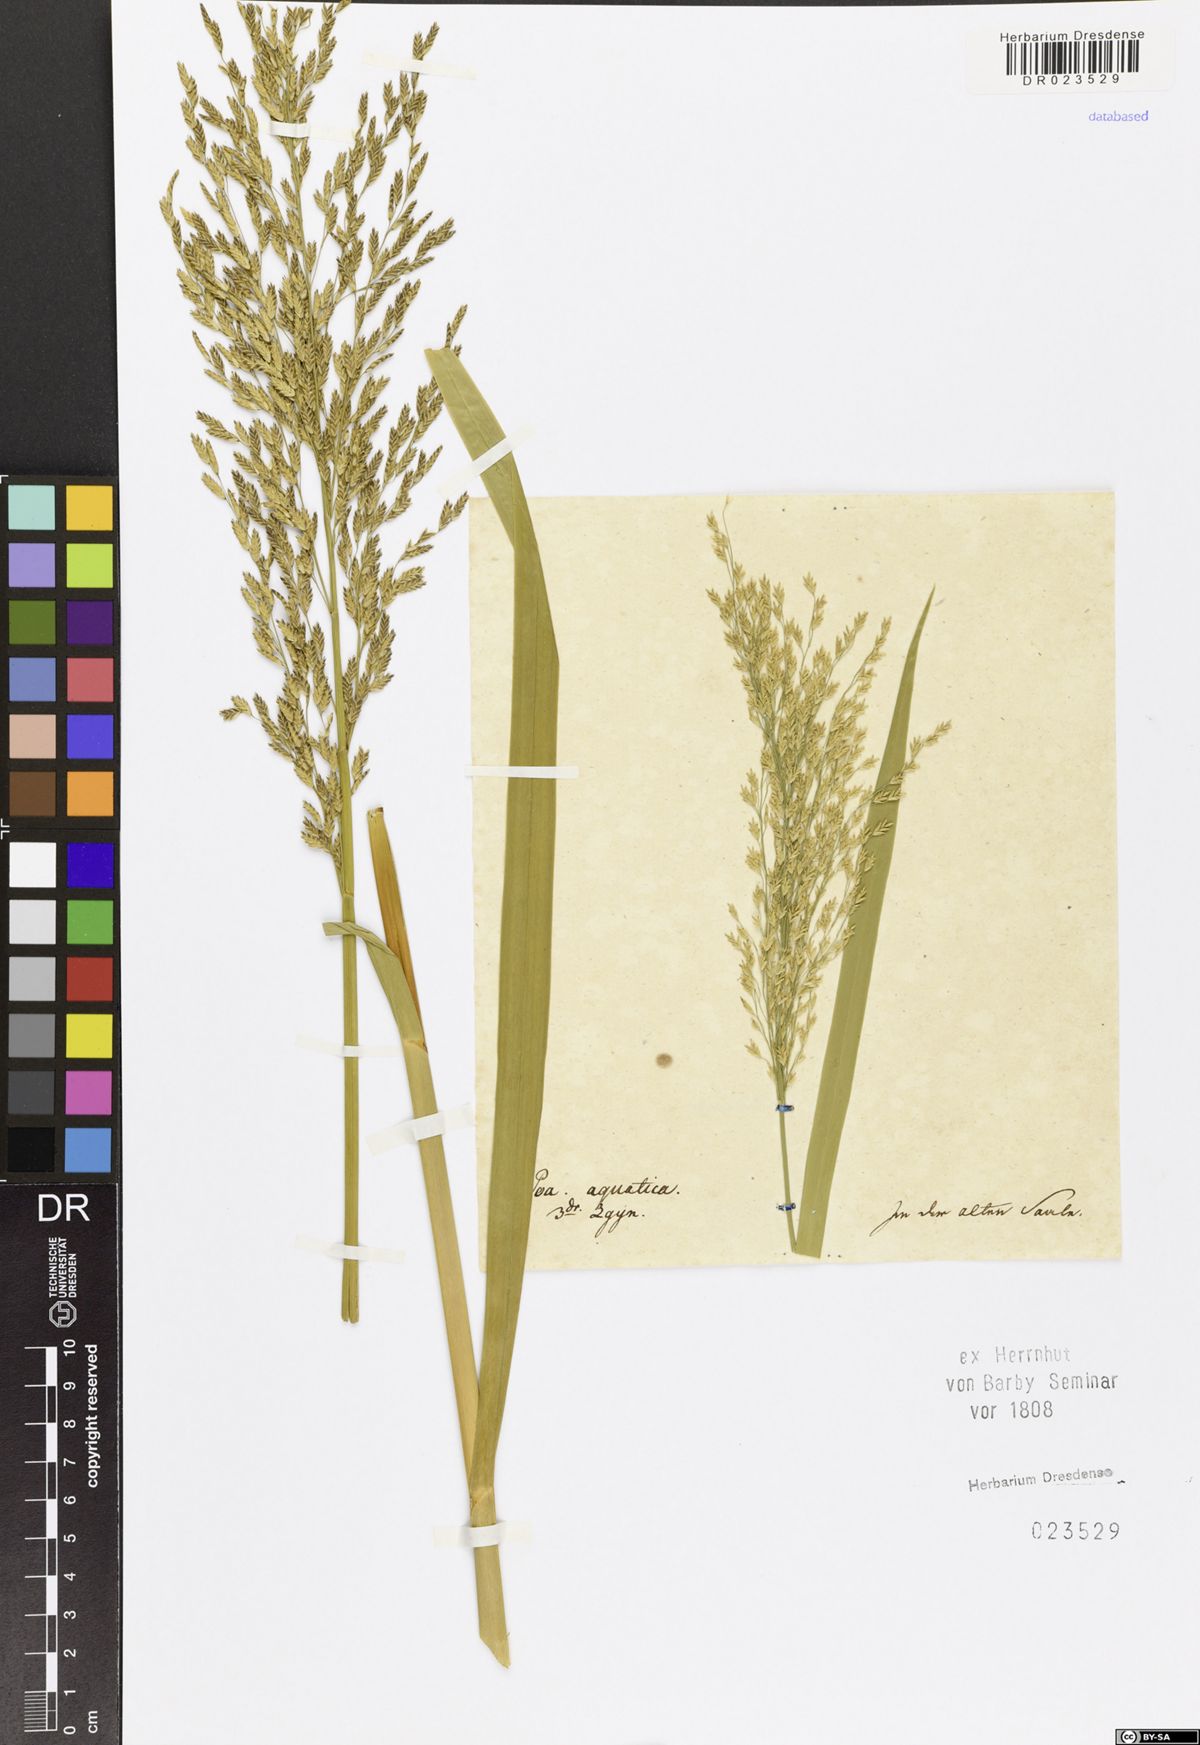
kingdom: Plantae
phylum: Tracheophyta
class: Liliopsida
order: Poales
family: Poaceae
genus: Glyceria
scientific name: Glyceria maxima
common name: Reed mannagrass
